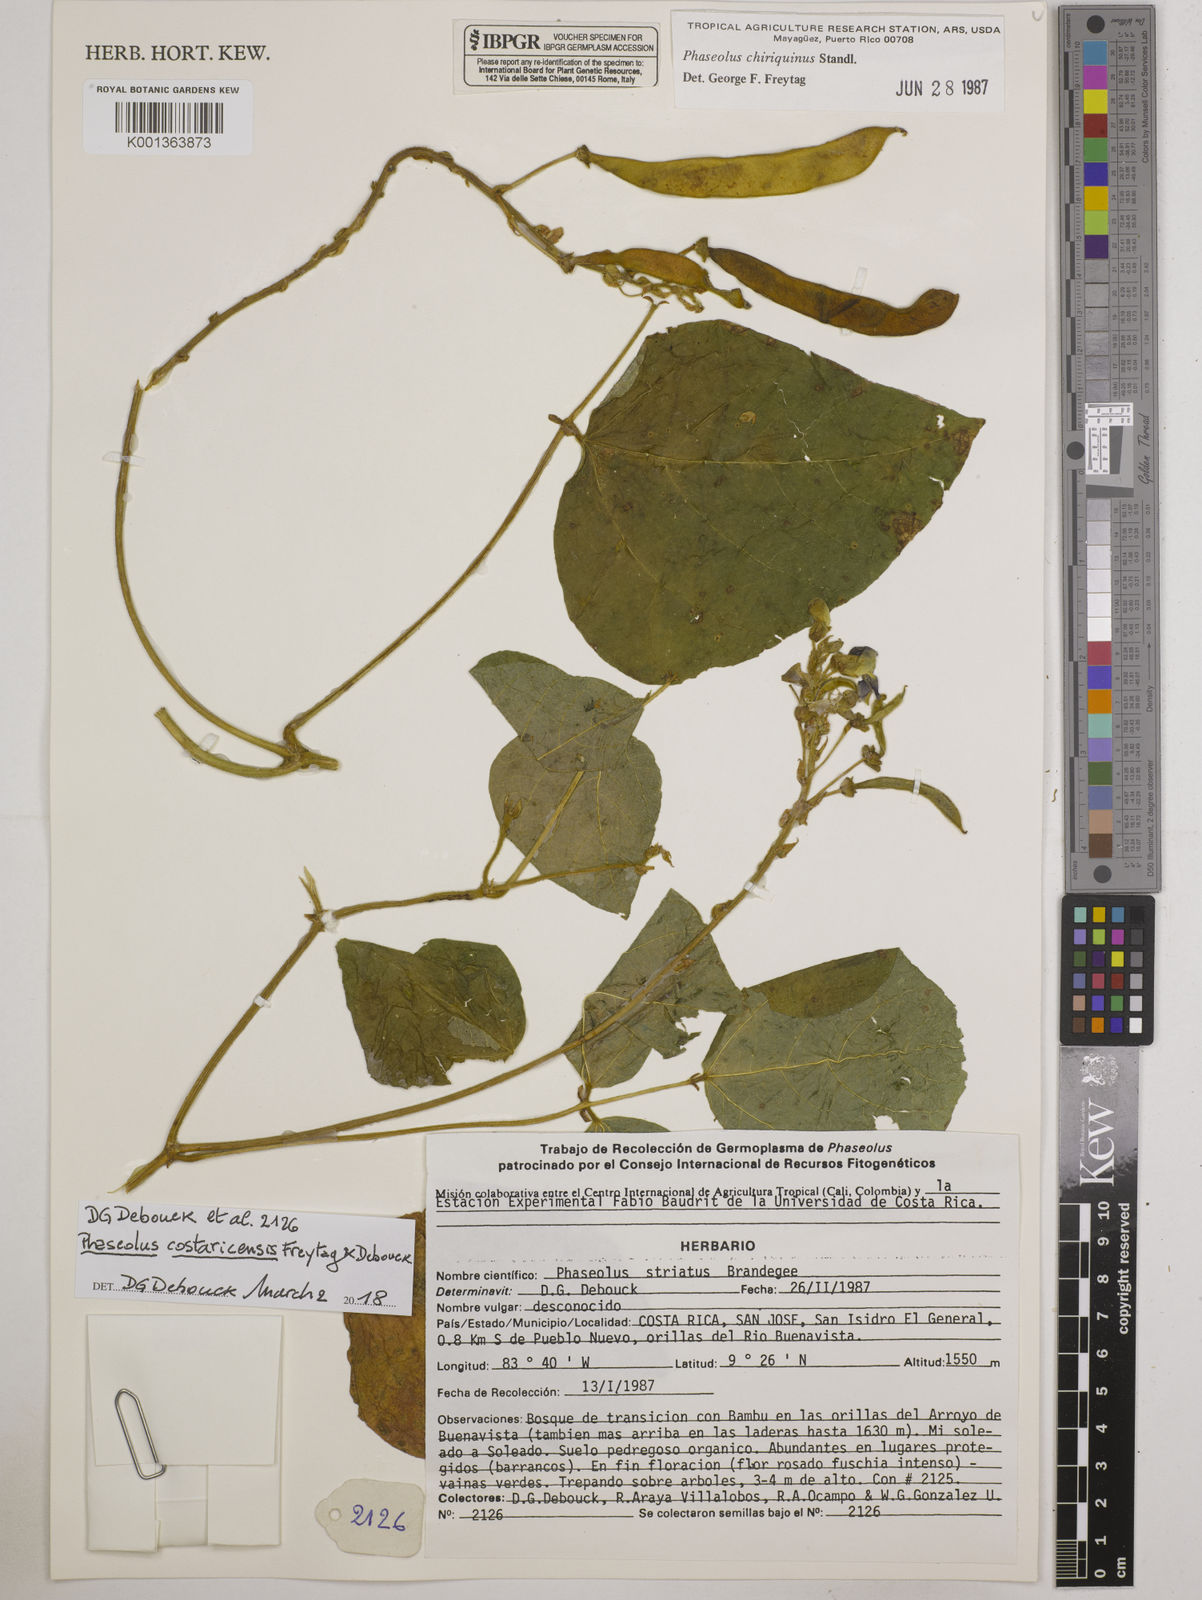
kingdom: Plantae
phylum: Tracheophyta
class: Magnoliopsida
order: Fabales
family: Fabaceae
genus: Phaseolus
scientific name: Phaseolus costaricensis
